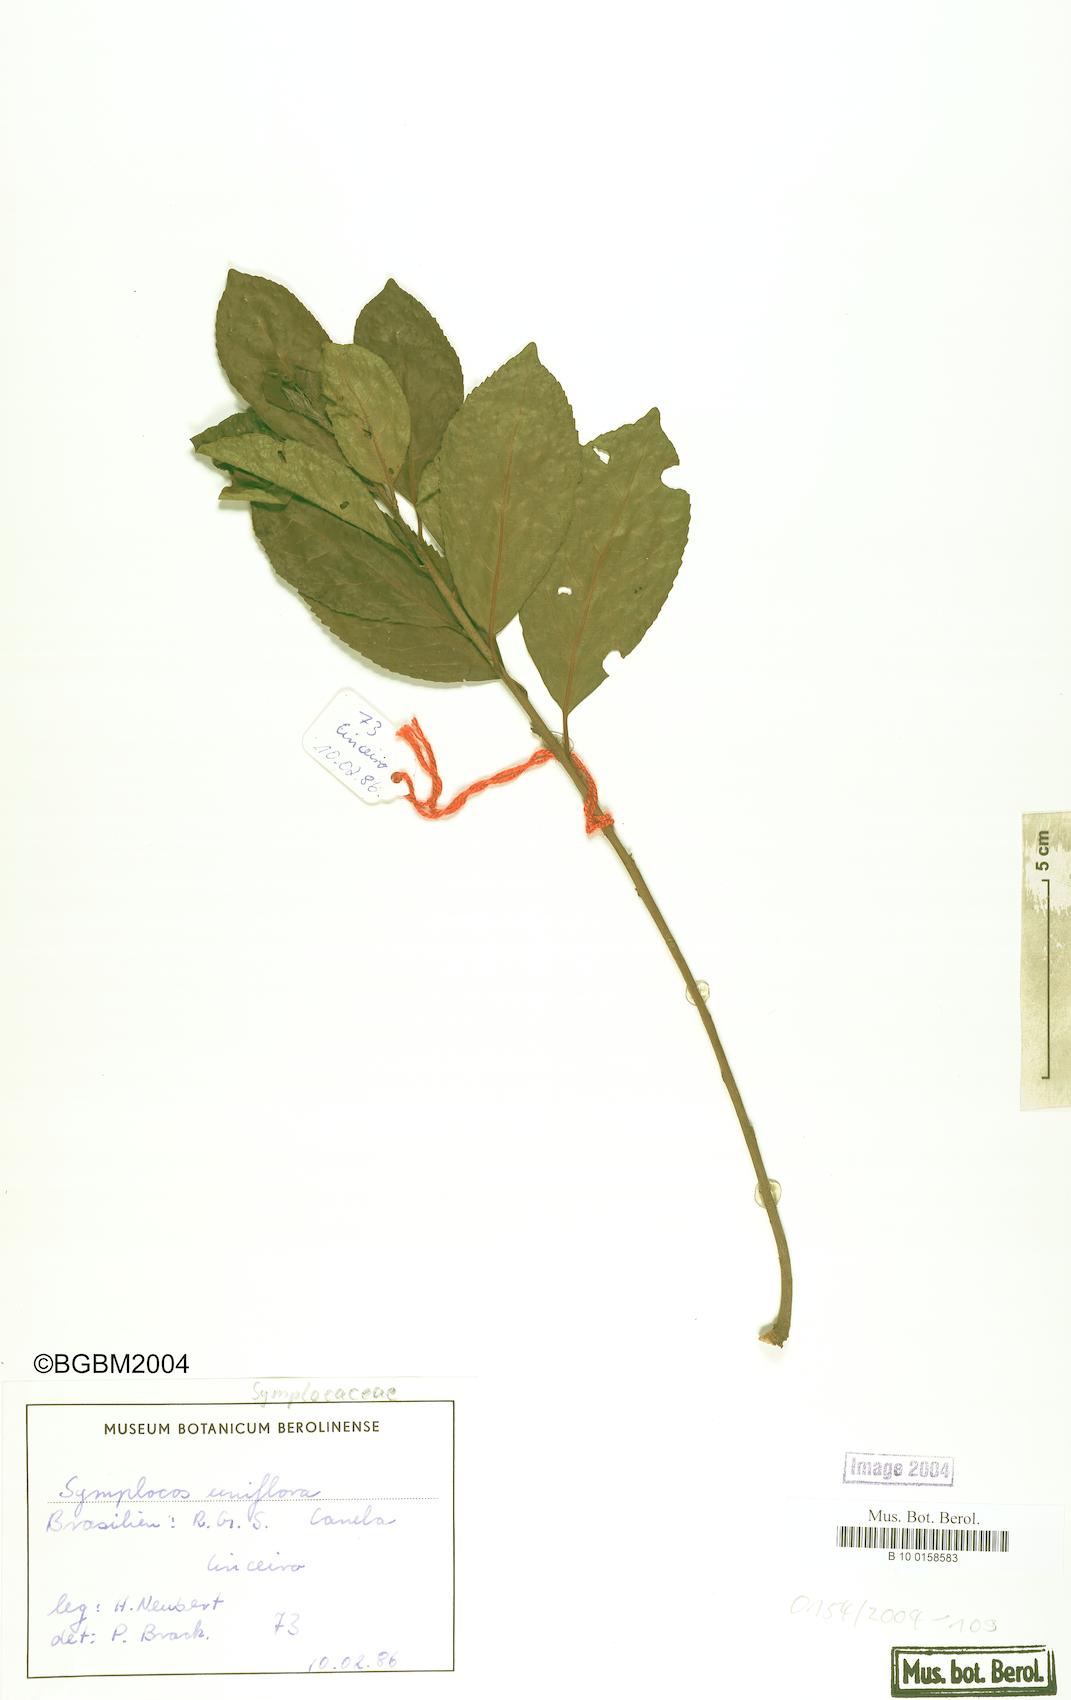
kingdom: Plantae
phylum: Tracheophyta
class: Magnoliopsida
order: Ericales
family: Symplocaceae
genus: Symplocos
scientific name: Symplocos uniflora
